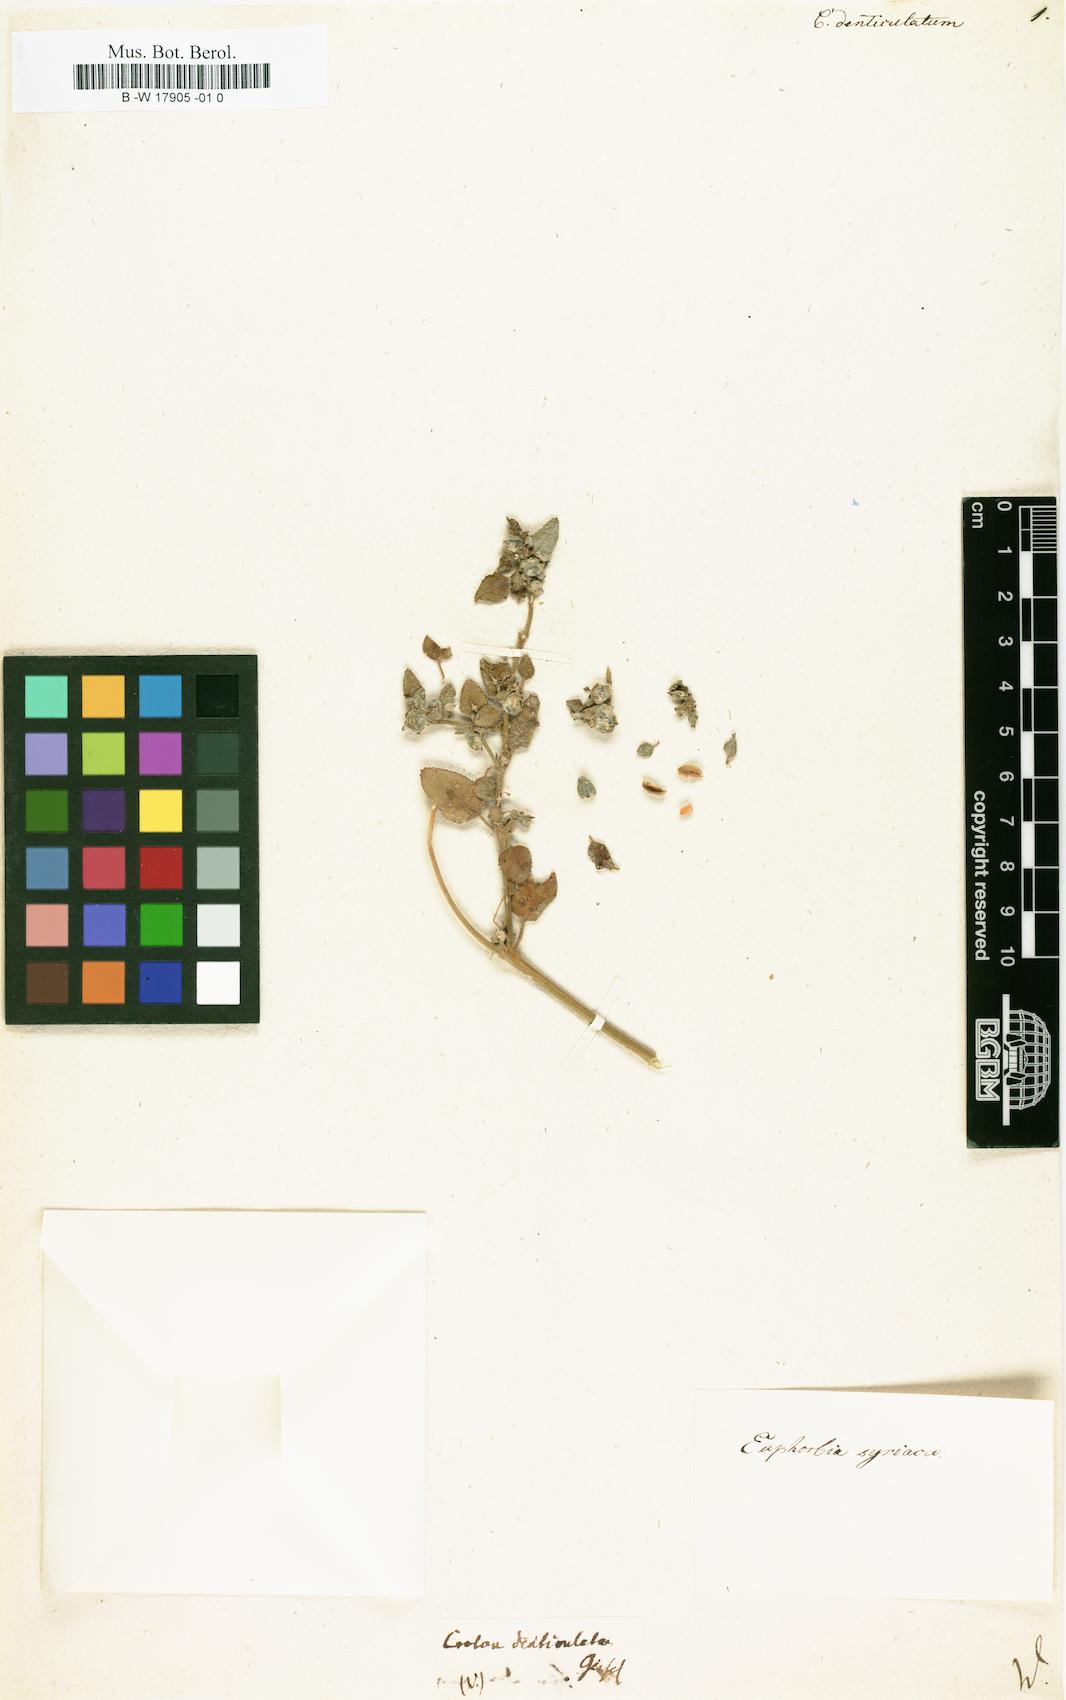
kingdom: Plantae
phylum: Tracheophyta
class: Magnoliopsida
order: Malpighiales
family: Euphorbiaceae
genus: Croton
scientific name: Croton denticulatus
